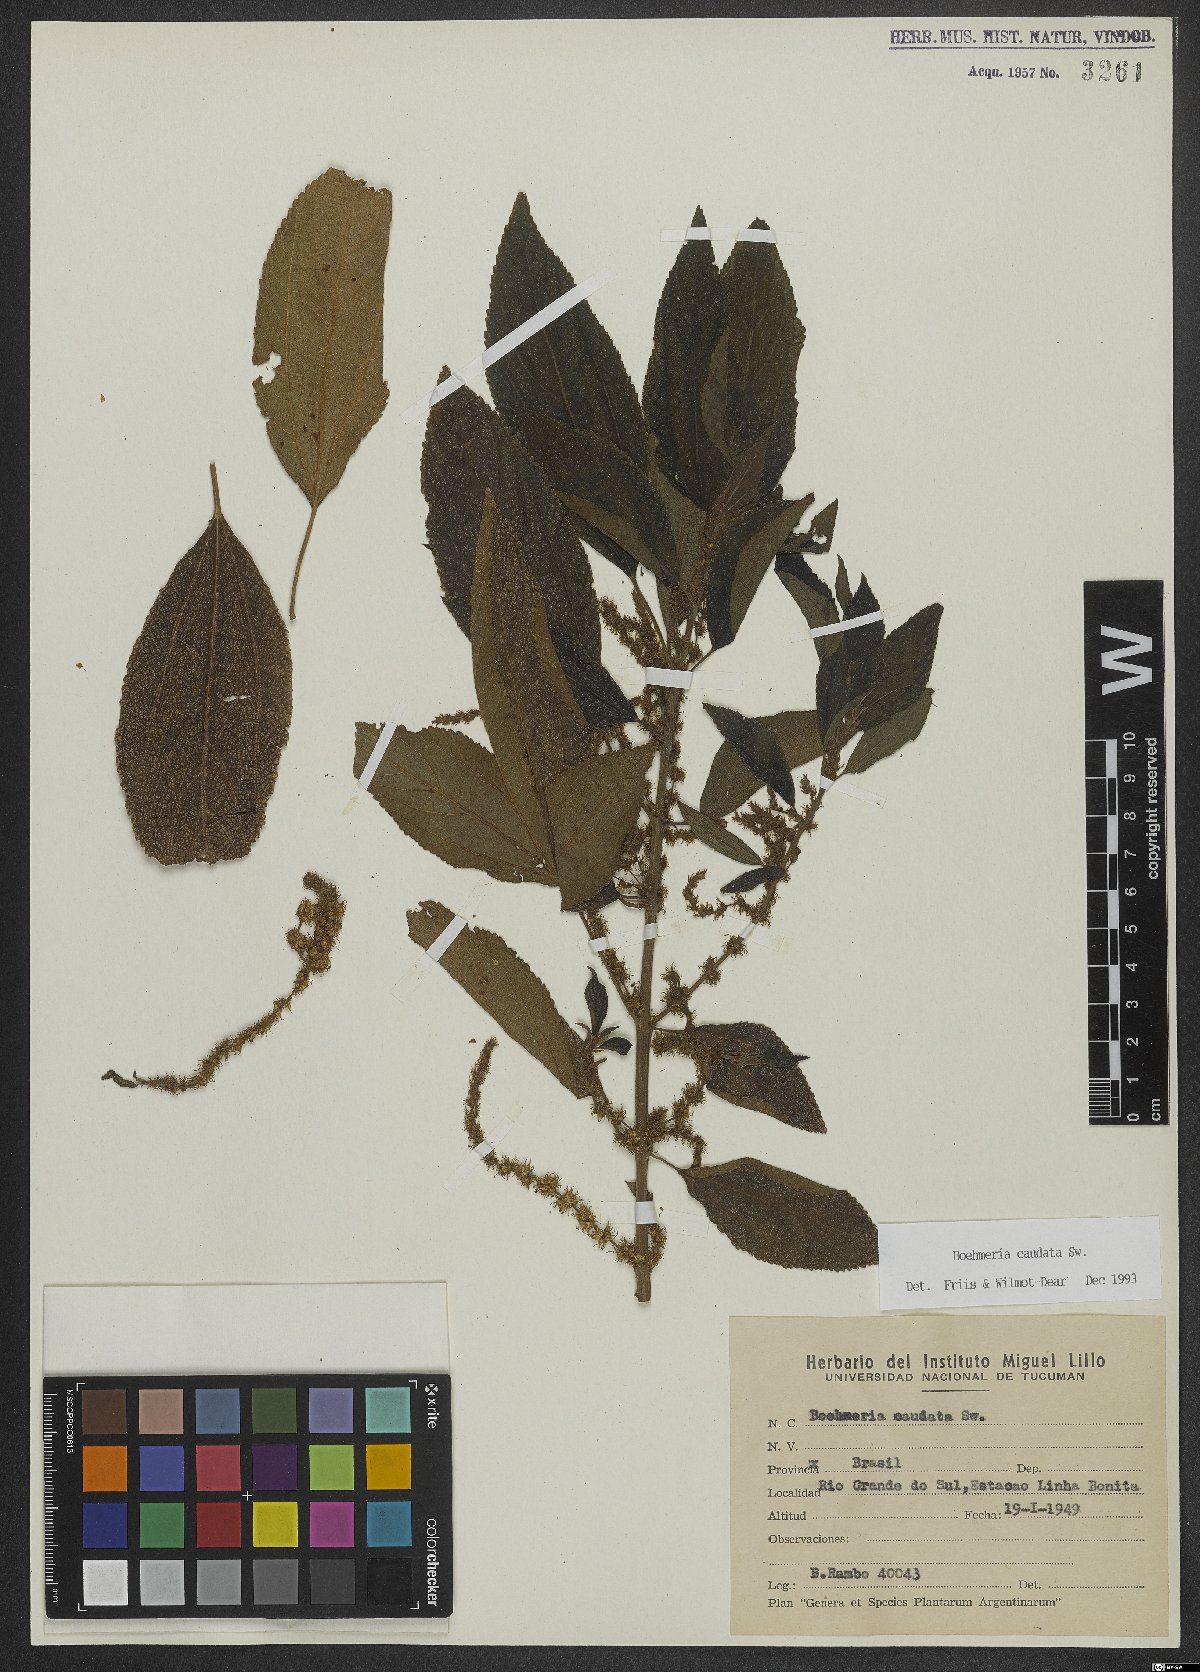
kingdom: Plantae
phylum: Tracheophyta
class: Magnoliopsida
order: Rosales
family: Urticaceae
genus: Boehmeria
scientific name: Boehmeria caudata
